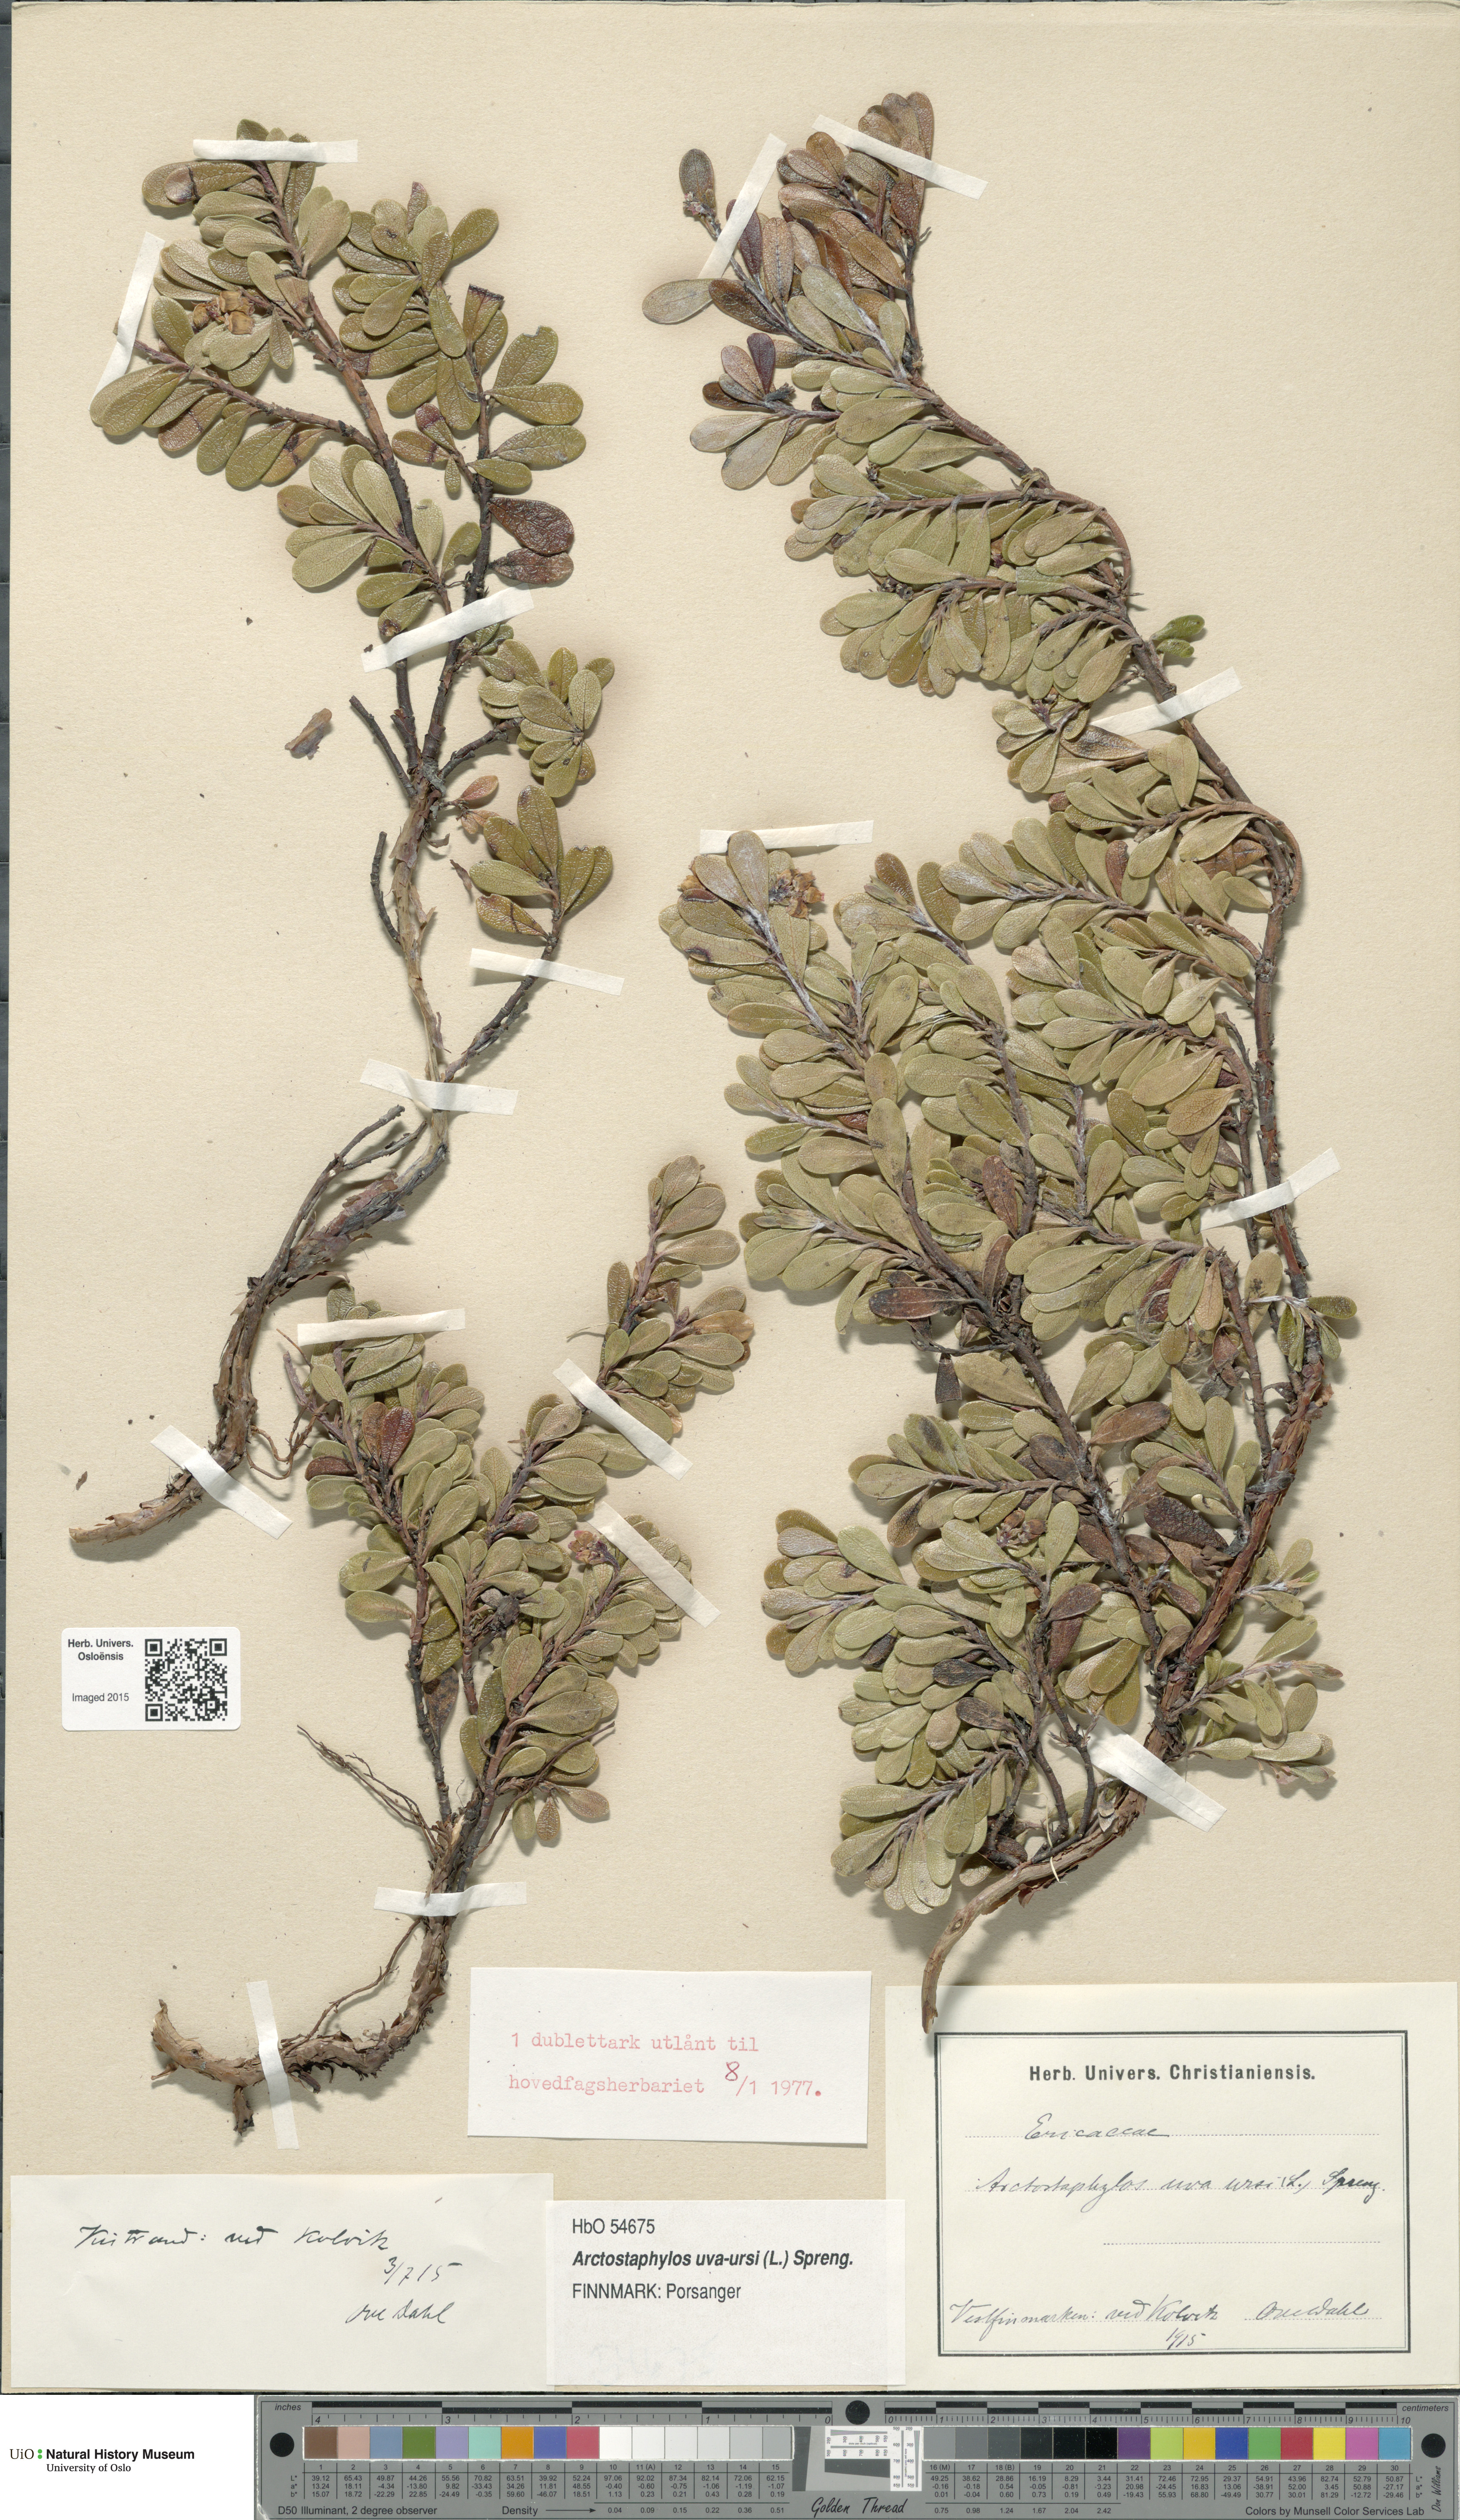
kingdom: Plantae
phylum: Tracheophyta
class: Magnoliopsida
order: Ericales
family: Ericaceae
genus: Arctostaphylos
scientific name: Arctostaphylos uva-ursi
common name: Bearberry
